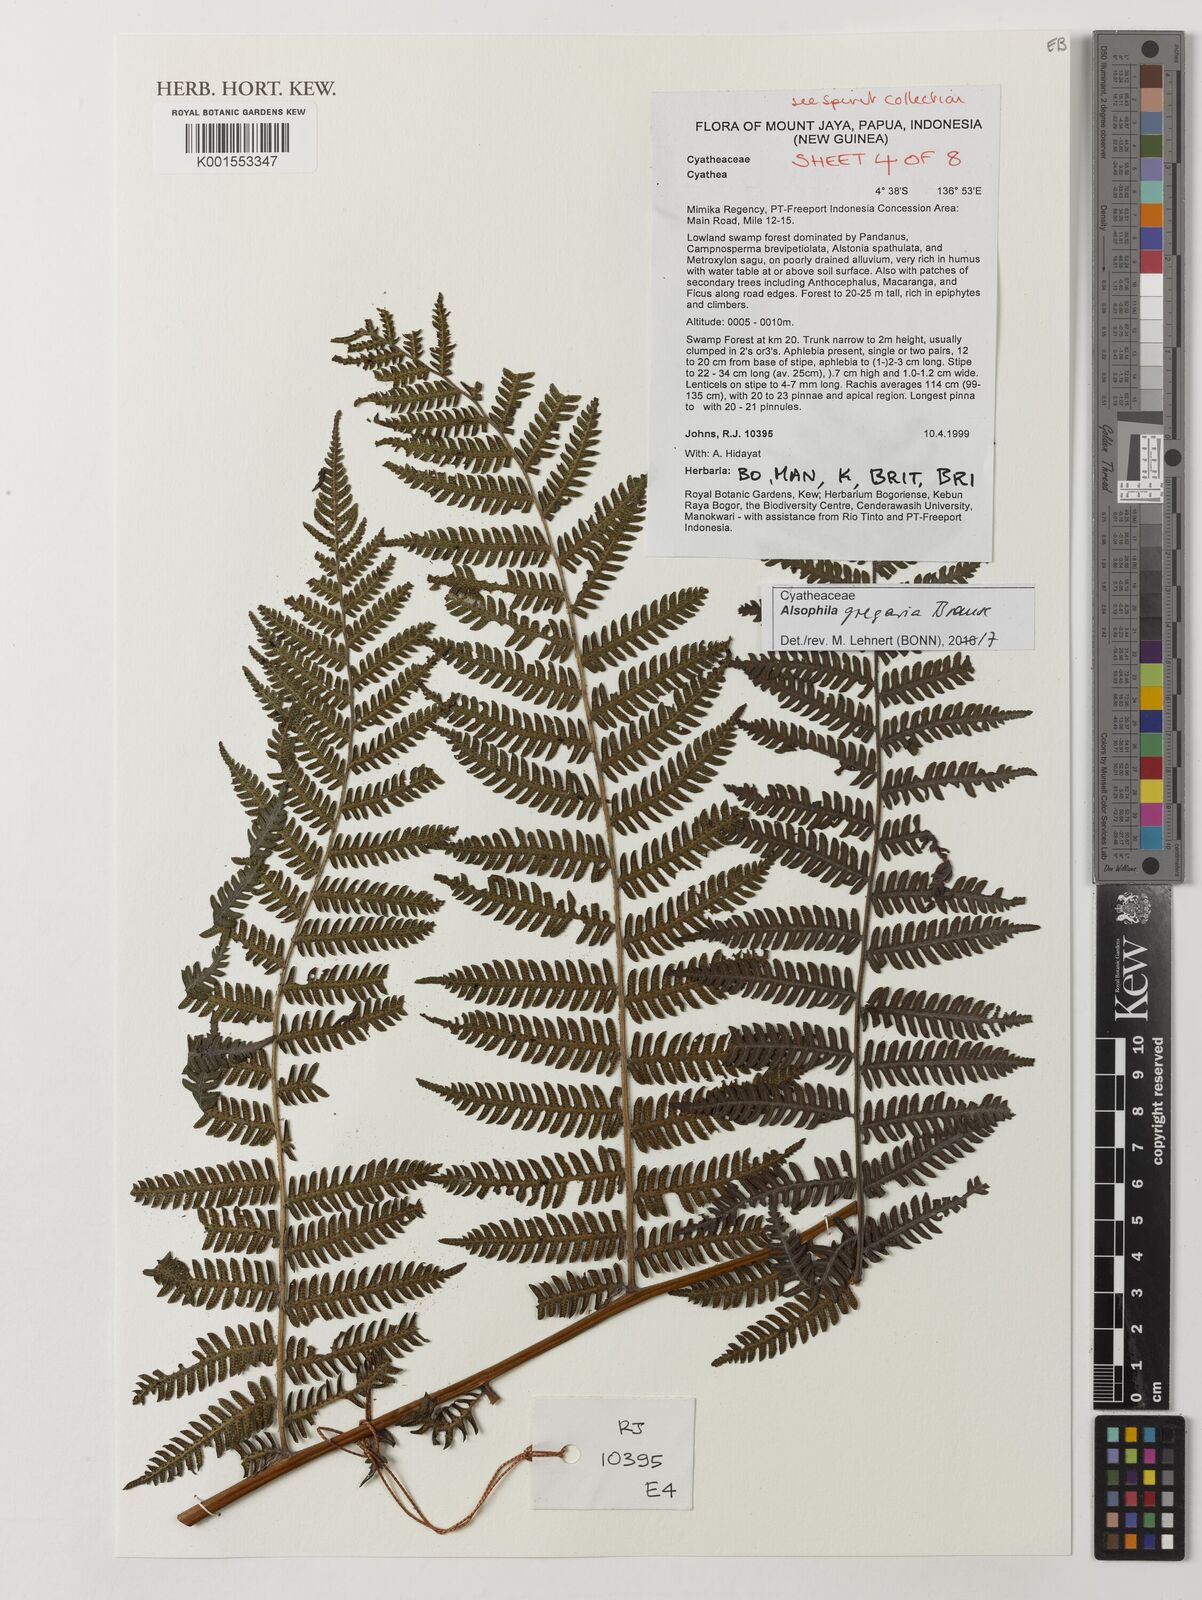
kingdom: Plantae
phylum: Tracheophyta
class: Polypodiopsida
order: Cyatheales
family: Cyatheaceae
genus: Alsophila
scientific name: Alsophila gregaria
